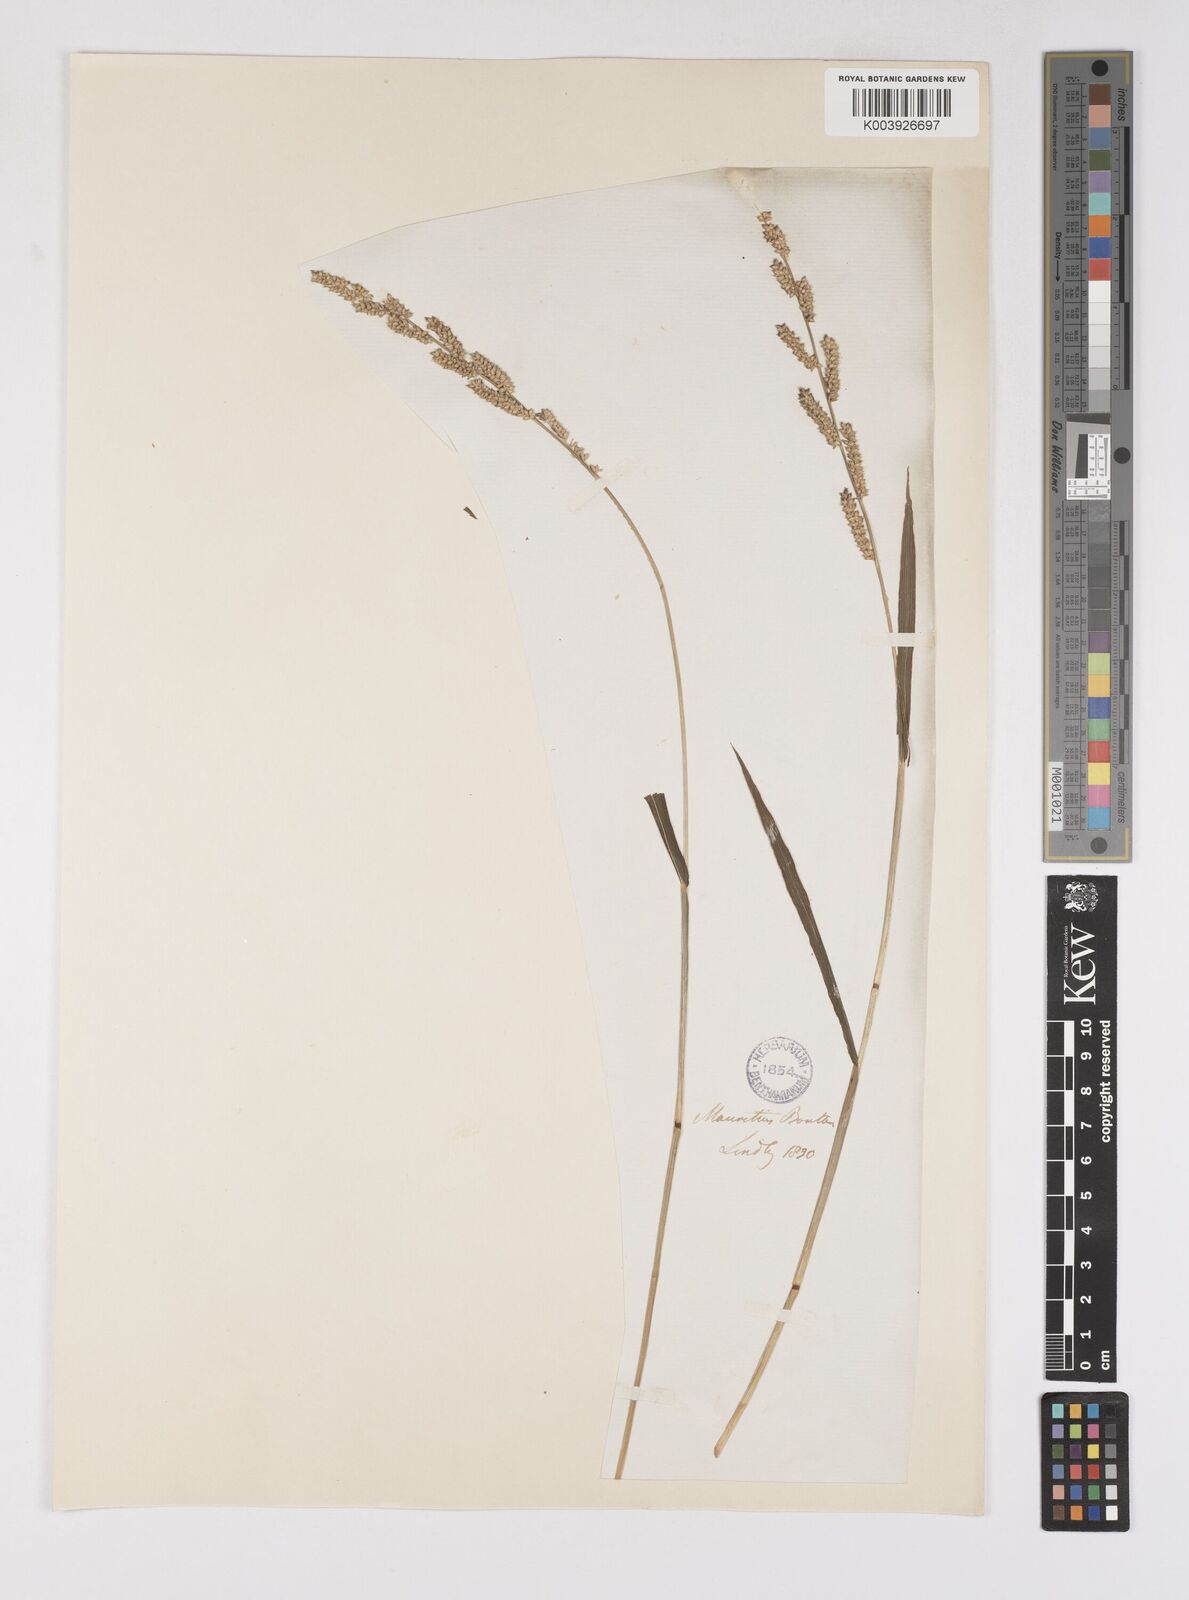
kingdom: Plantae
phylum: Tracheophyta
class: Liliopsida
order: Poales
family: Poaceae
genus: Echinochloa
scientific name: Echinochloa colonum
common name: Jungle rice
